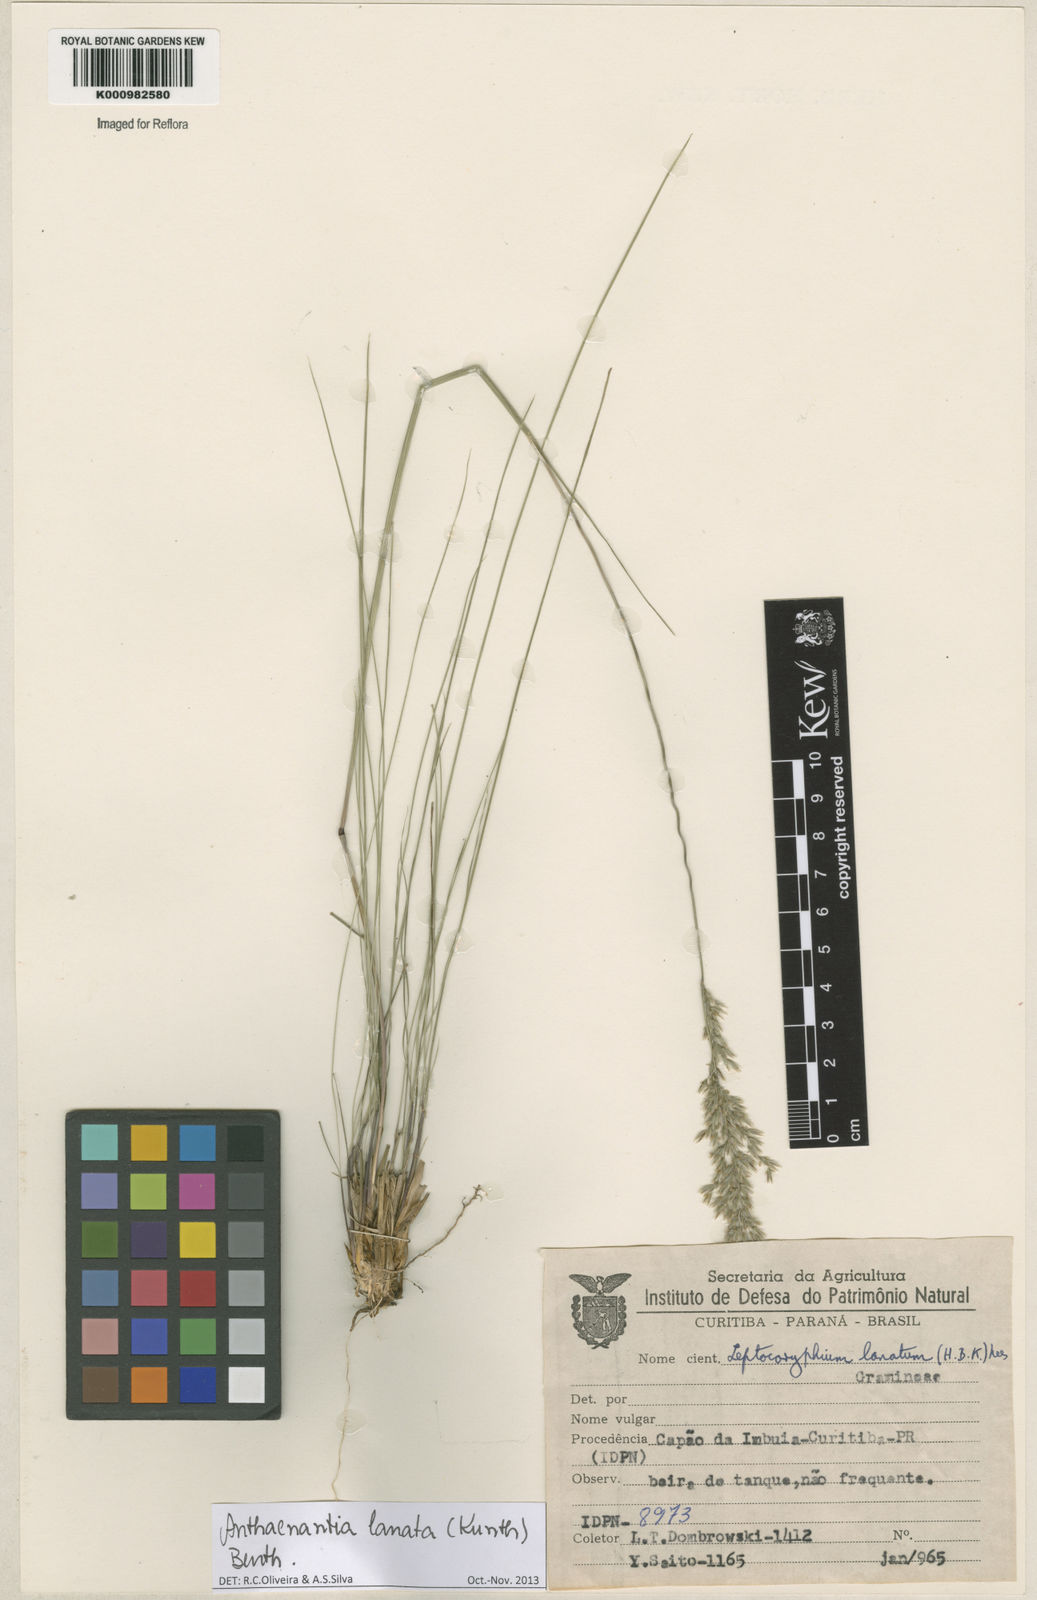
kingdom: Plantae
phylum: Tracheophyta
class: Liliopsida
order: Poales
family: Poaceae
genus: Anthenantia
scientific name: Anthenantia lanata
